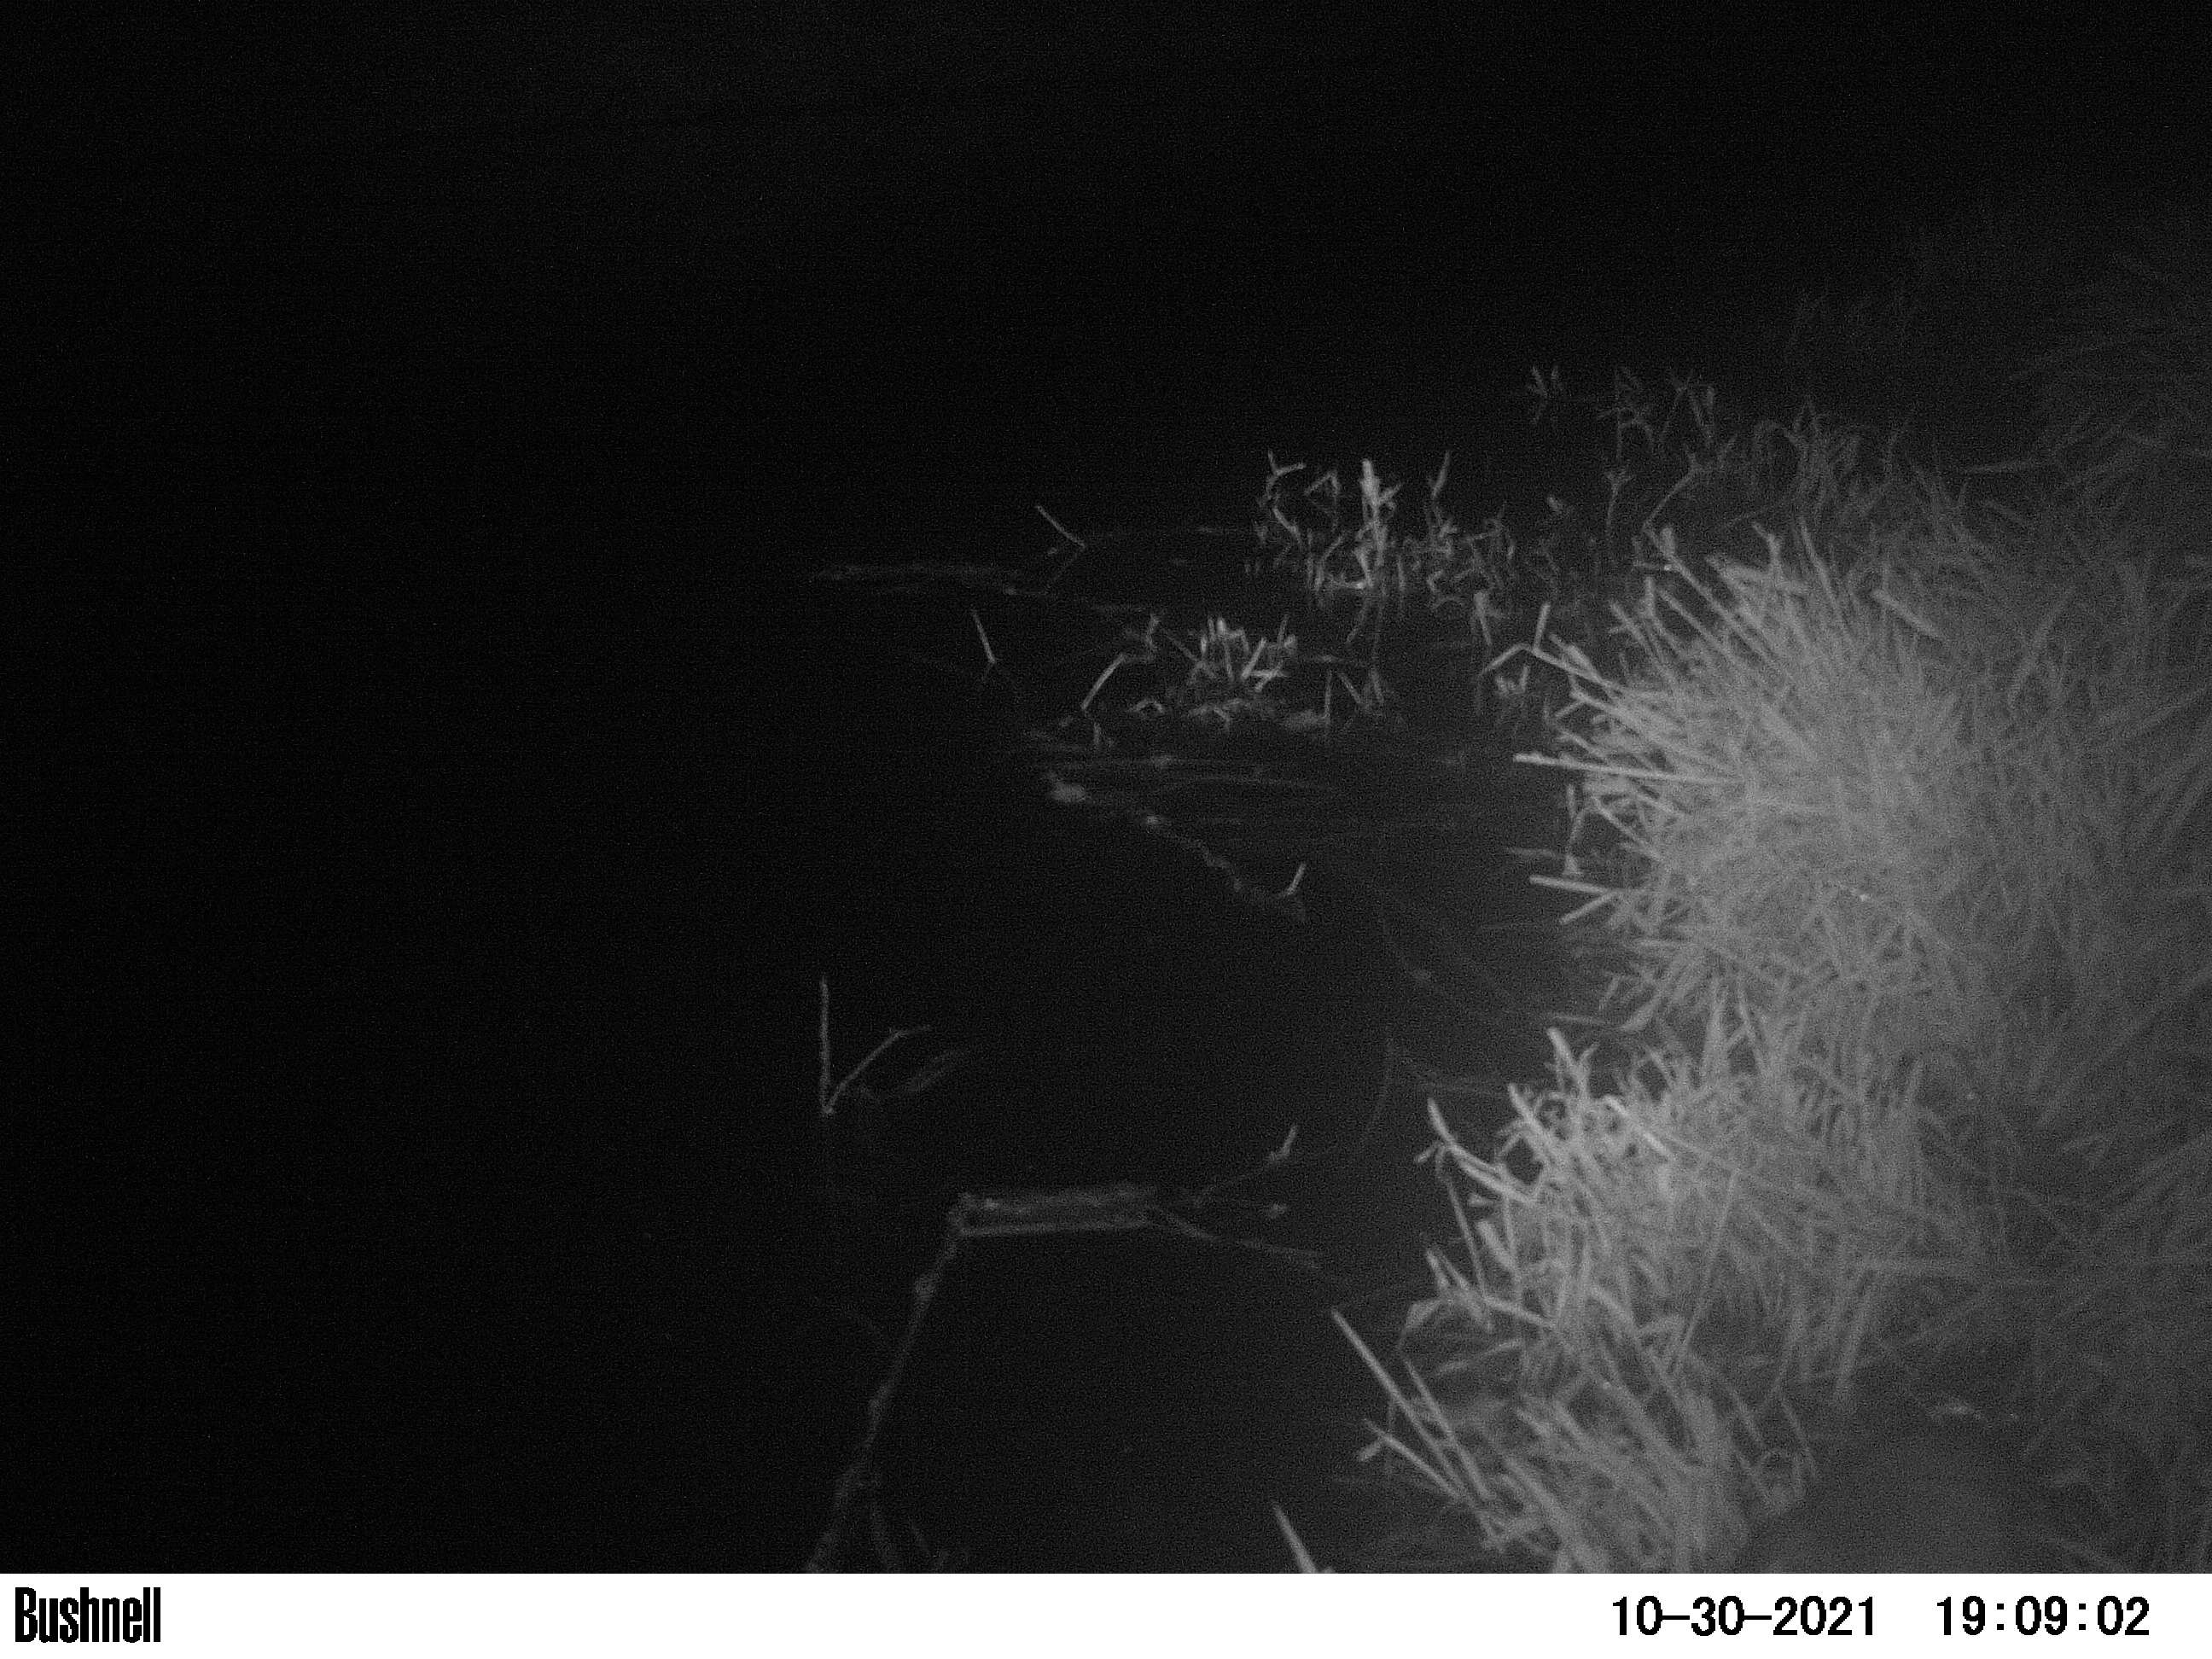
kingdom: Animalia
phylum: Chordata
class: Mammalia
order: Rodentia
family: Muridae
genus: Rattus
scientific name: Rattus norvegicus
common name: Brown rat
